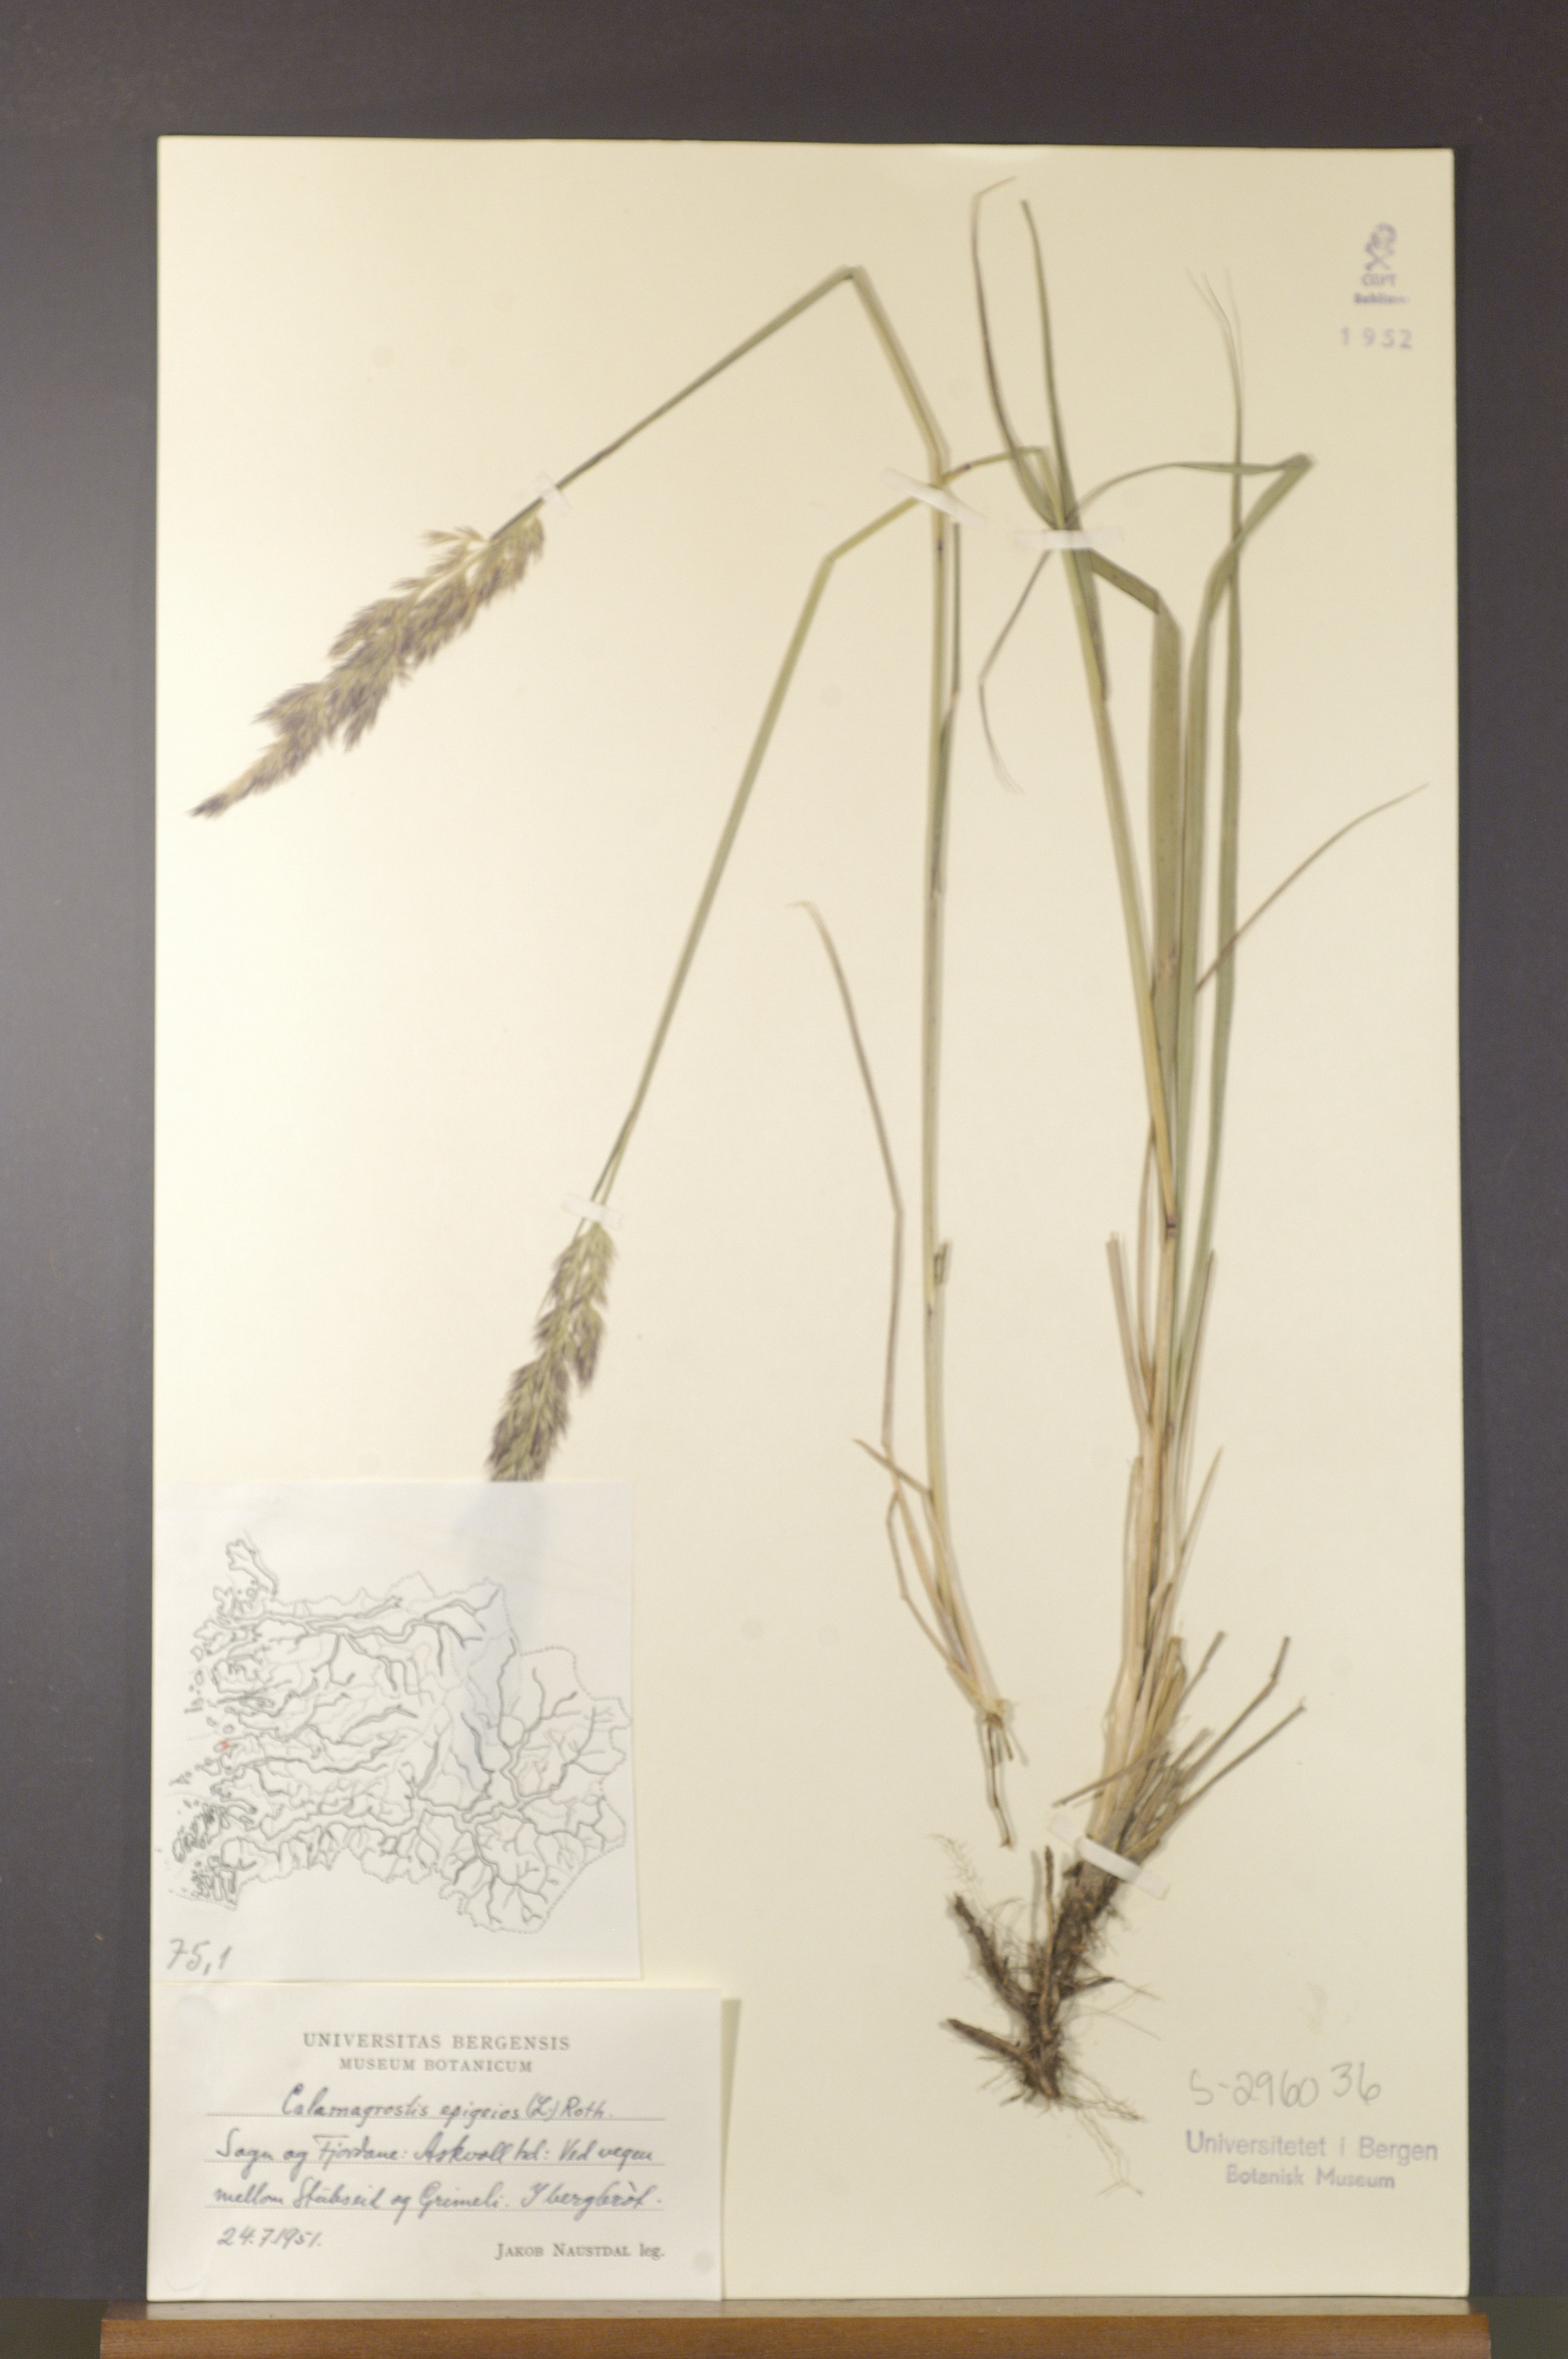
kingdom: Plantae
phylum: Tracheophyta
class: Liliopsida
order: Poales
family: Poaceae
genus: Calamagrostis
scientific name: Calamagrostis epigejos
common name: Wood small-reed
